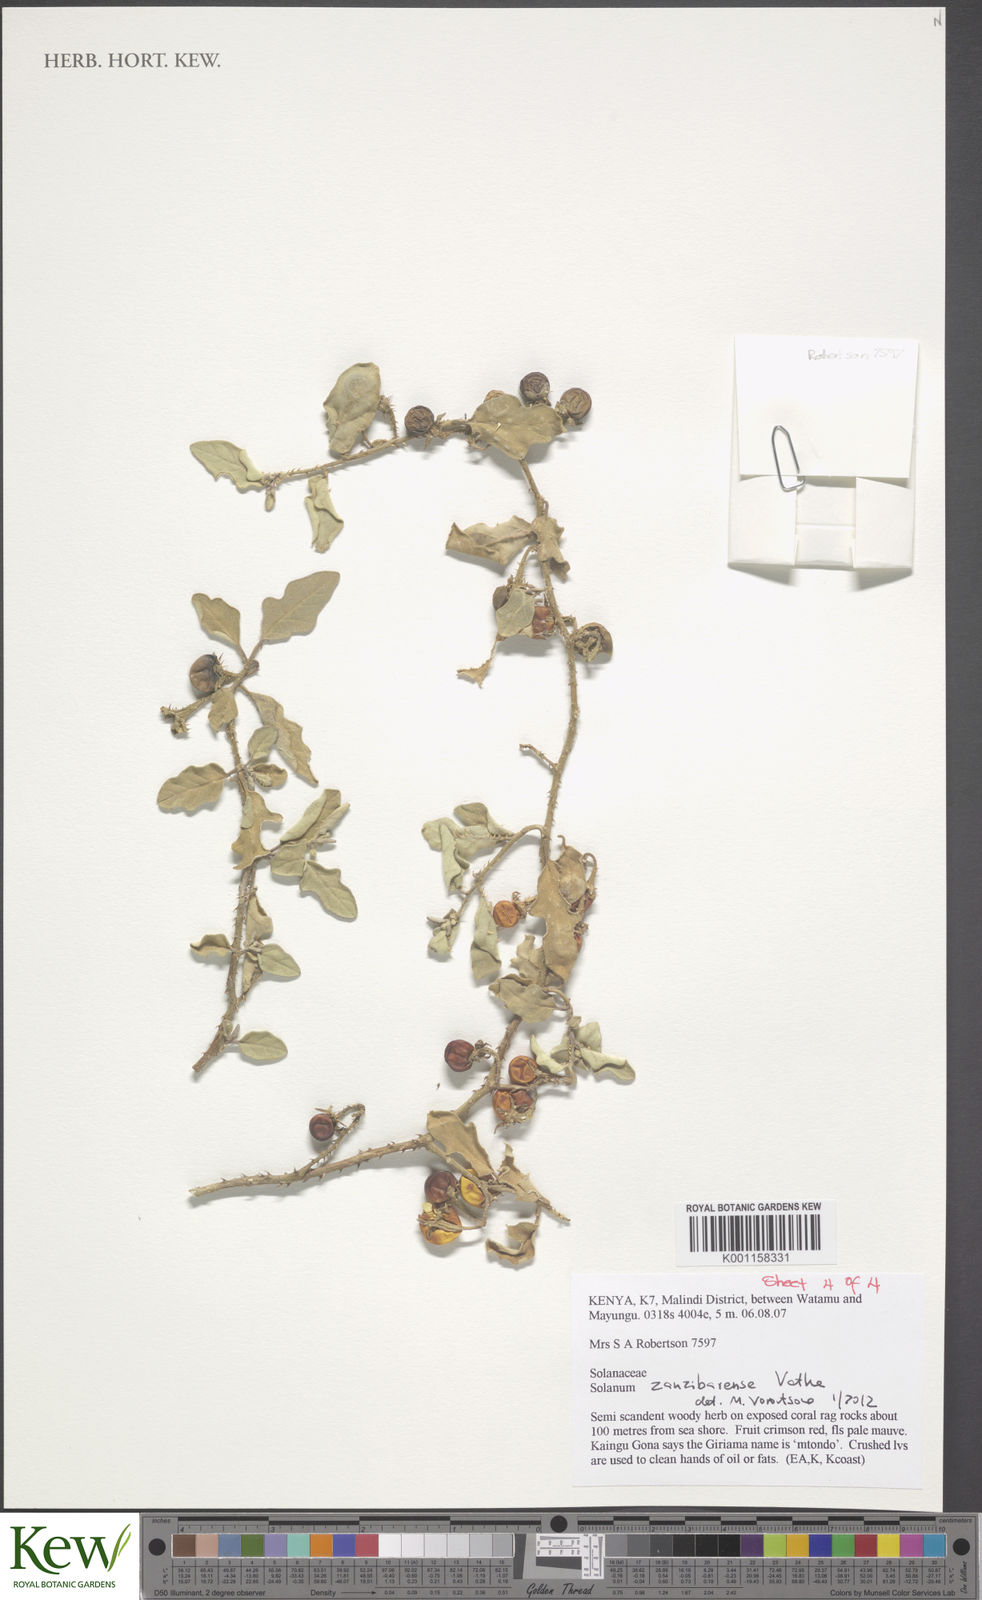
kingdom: Plantae
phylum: Tracheophyta
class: Magnoliopsida
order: Solanales
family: Solanaceae
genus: Solanum
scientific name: Solanum zanzibarense
